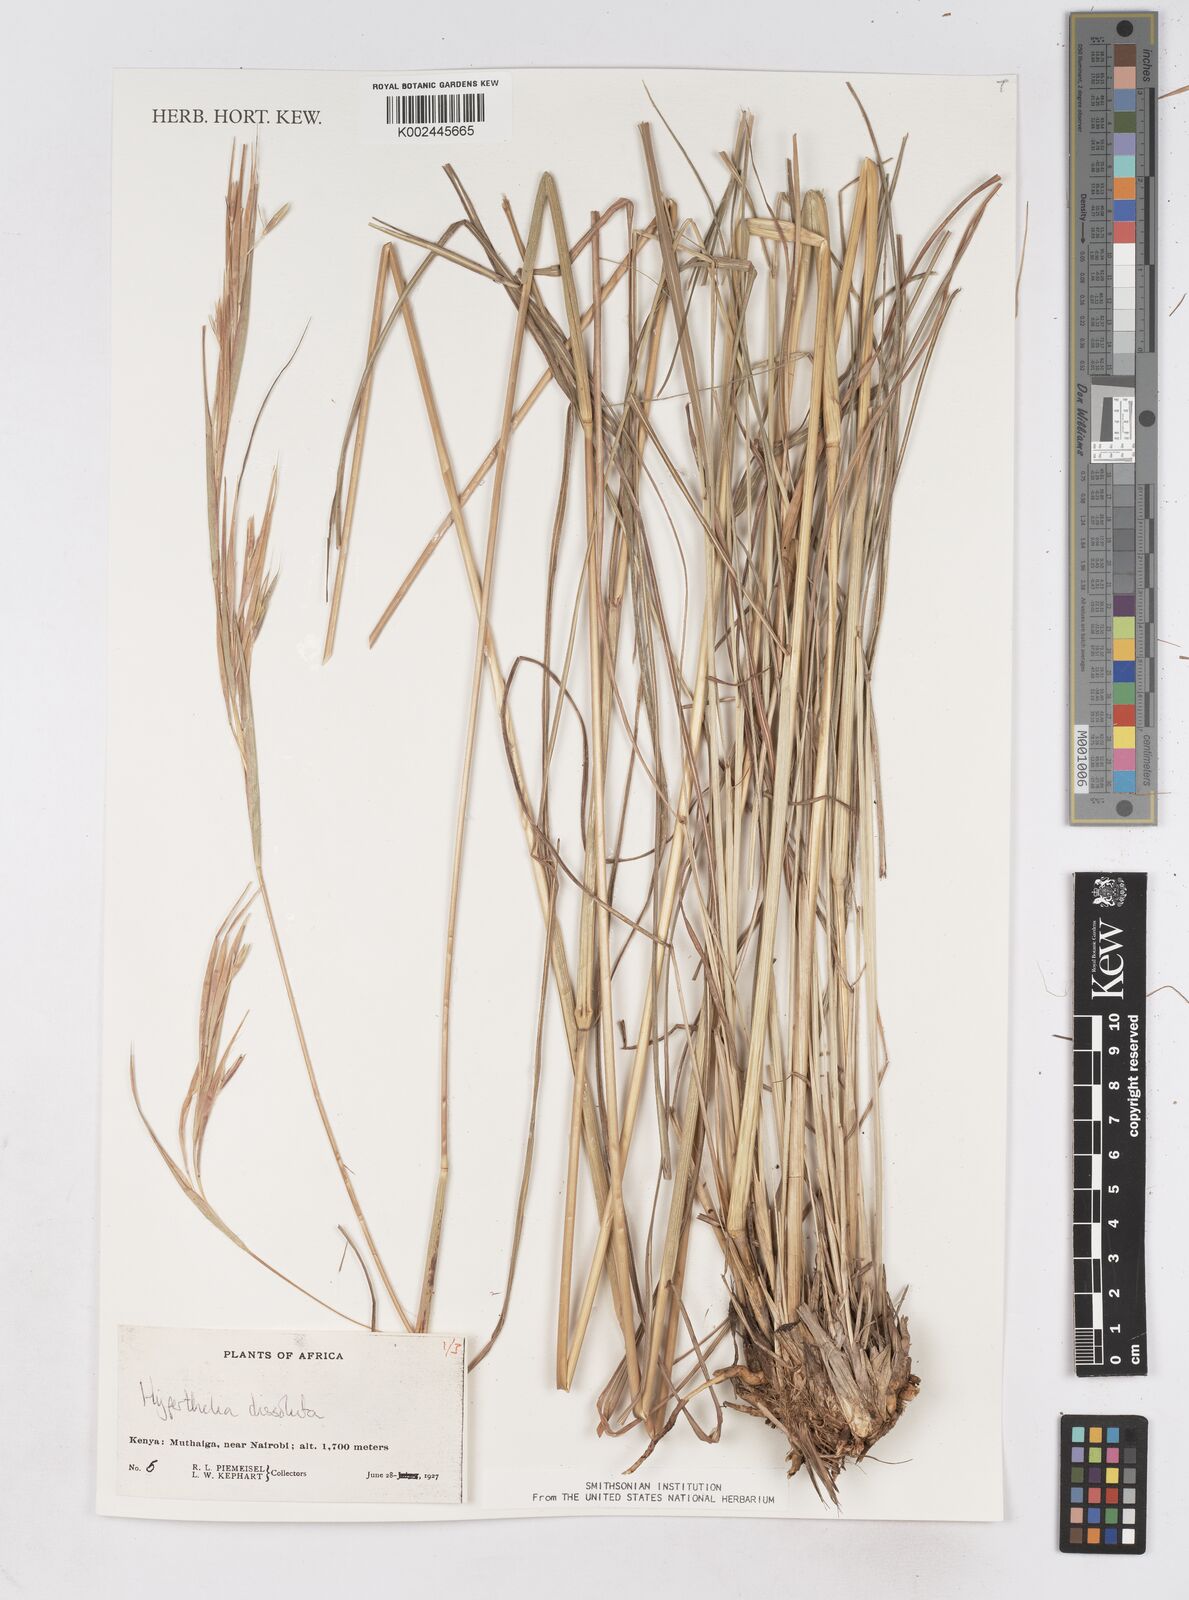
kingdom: Plantae
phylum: Tracheophyta
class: Liliopsida
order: Poales
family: Poaceae
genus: Hyperthelia
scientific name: Hyperthelia dissoluta
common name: Yellow thatching grass
